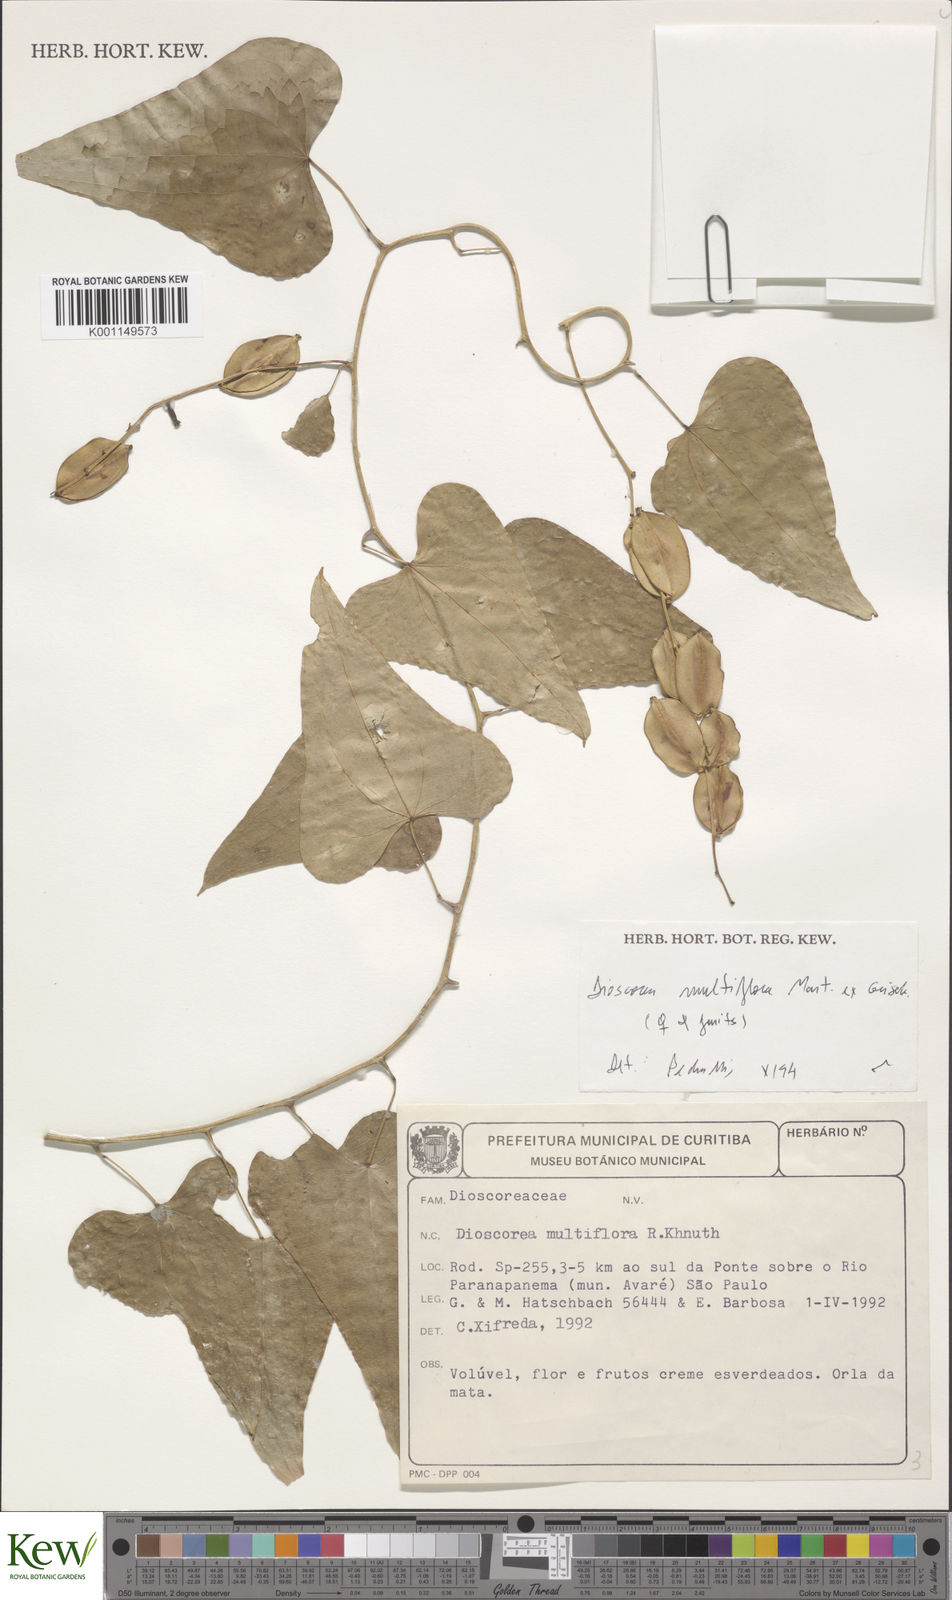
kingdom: Plantae
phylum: Tracheophyta
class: Liliopsida
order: Dioscoreales
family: Dioscoreaceae
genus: Dioscorea
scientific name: Dioscorea multiflora
